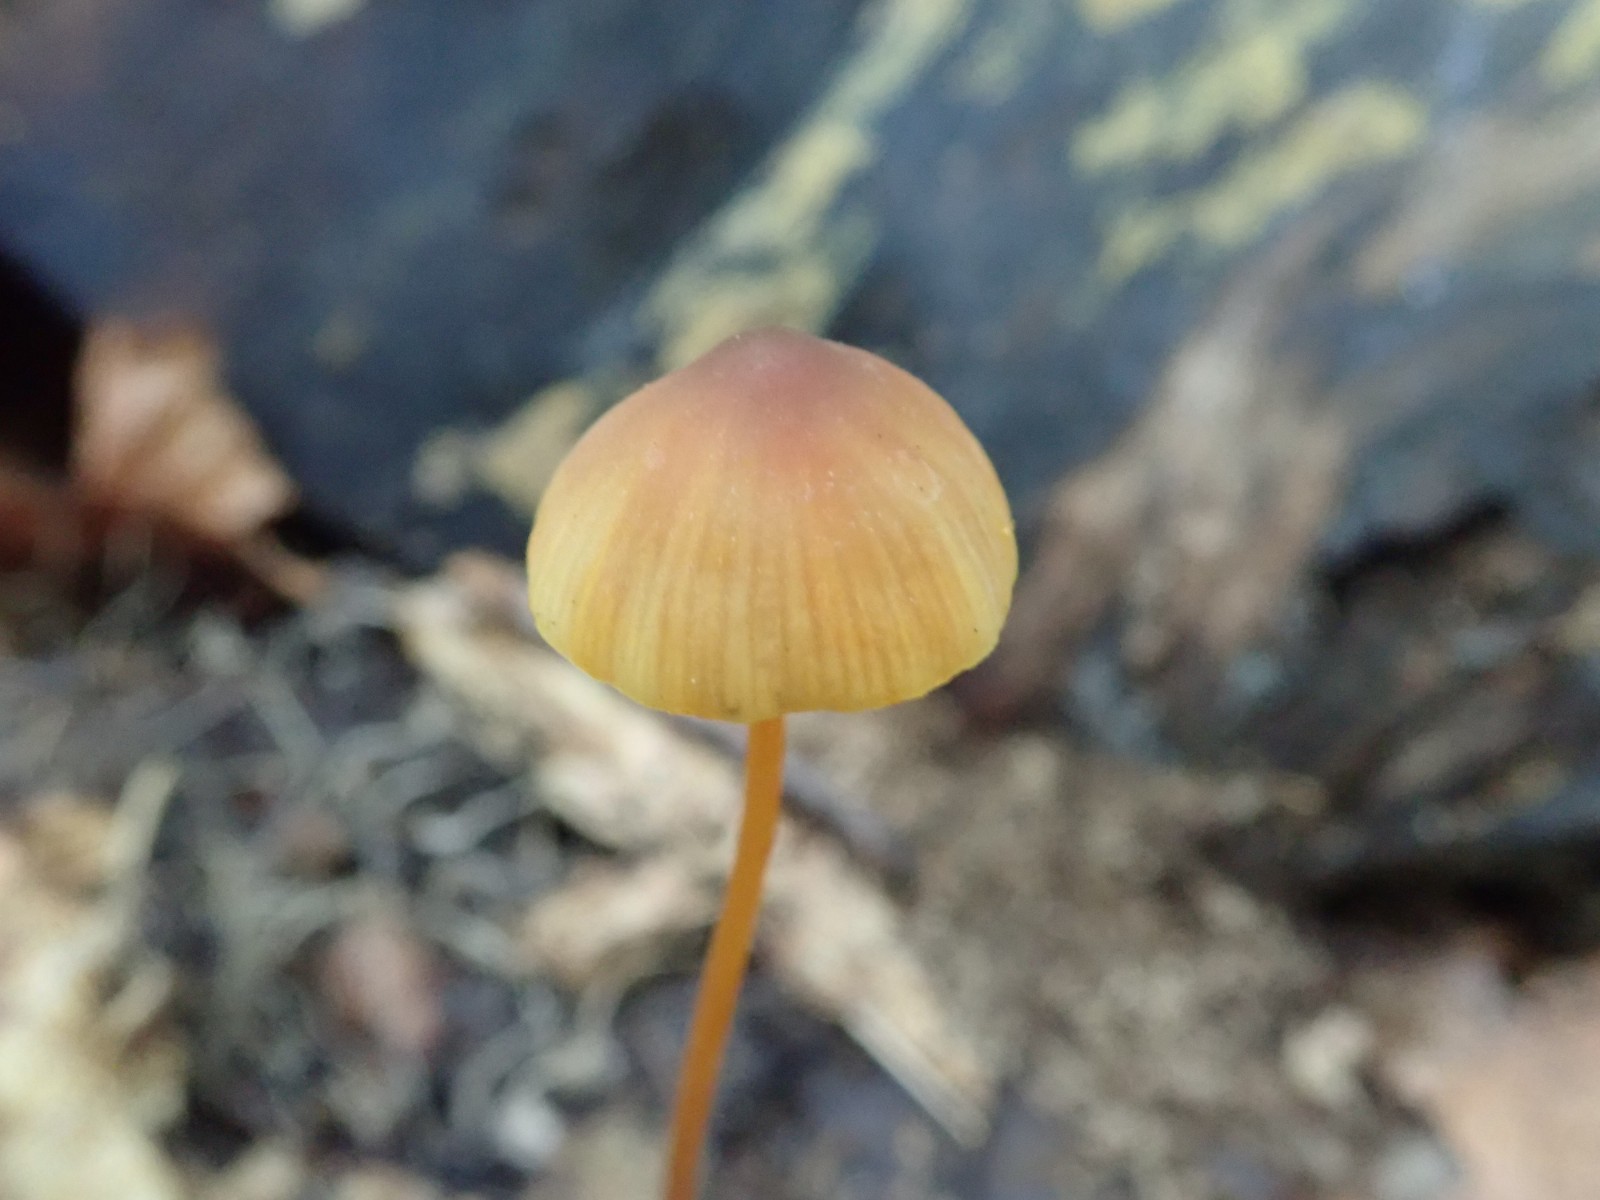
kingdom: Fungi
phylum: Basidiomycota
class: Agaricomycetes
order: Agaricales
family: Mycenaceae
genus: Mycena
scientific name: Mycena crocata
